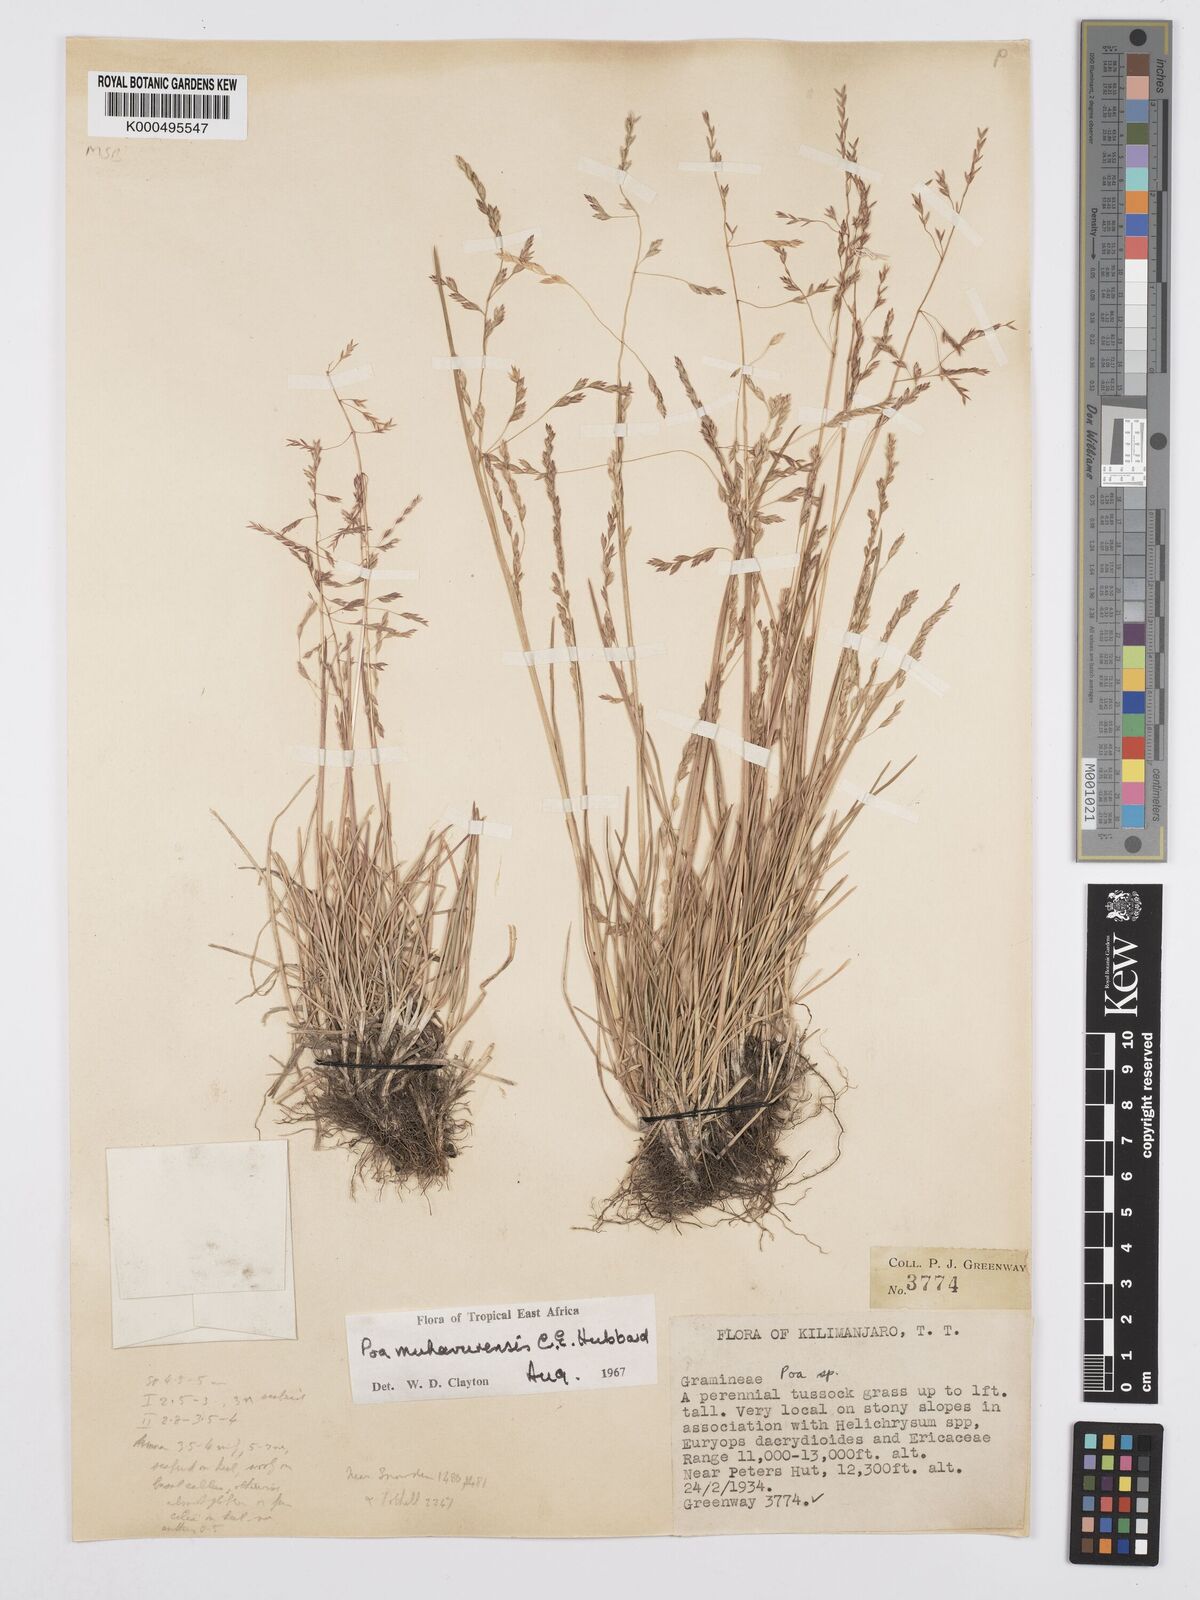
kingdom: Plantae
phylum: Tracheophyta
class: Liliopsida
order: Poales
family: Poaceae
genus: Poa
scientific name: Poa schimperiana
